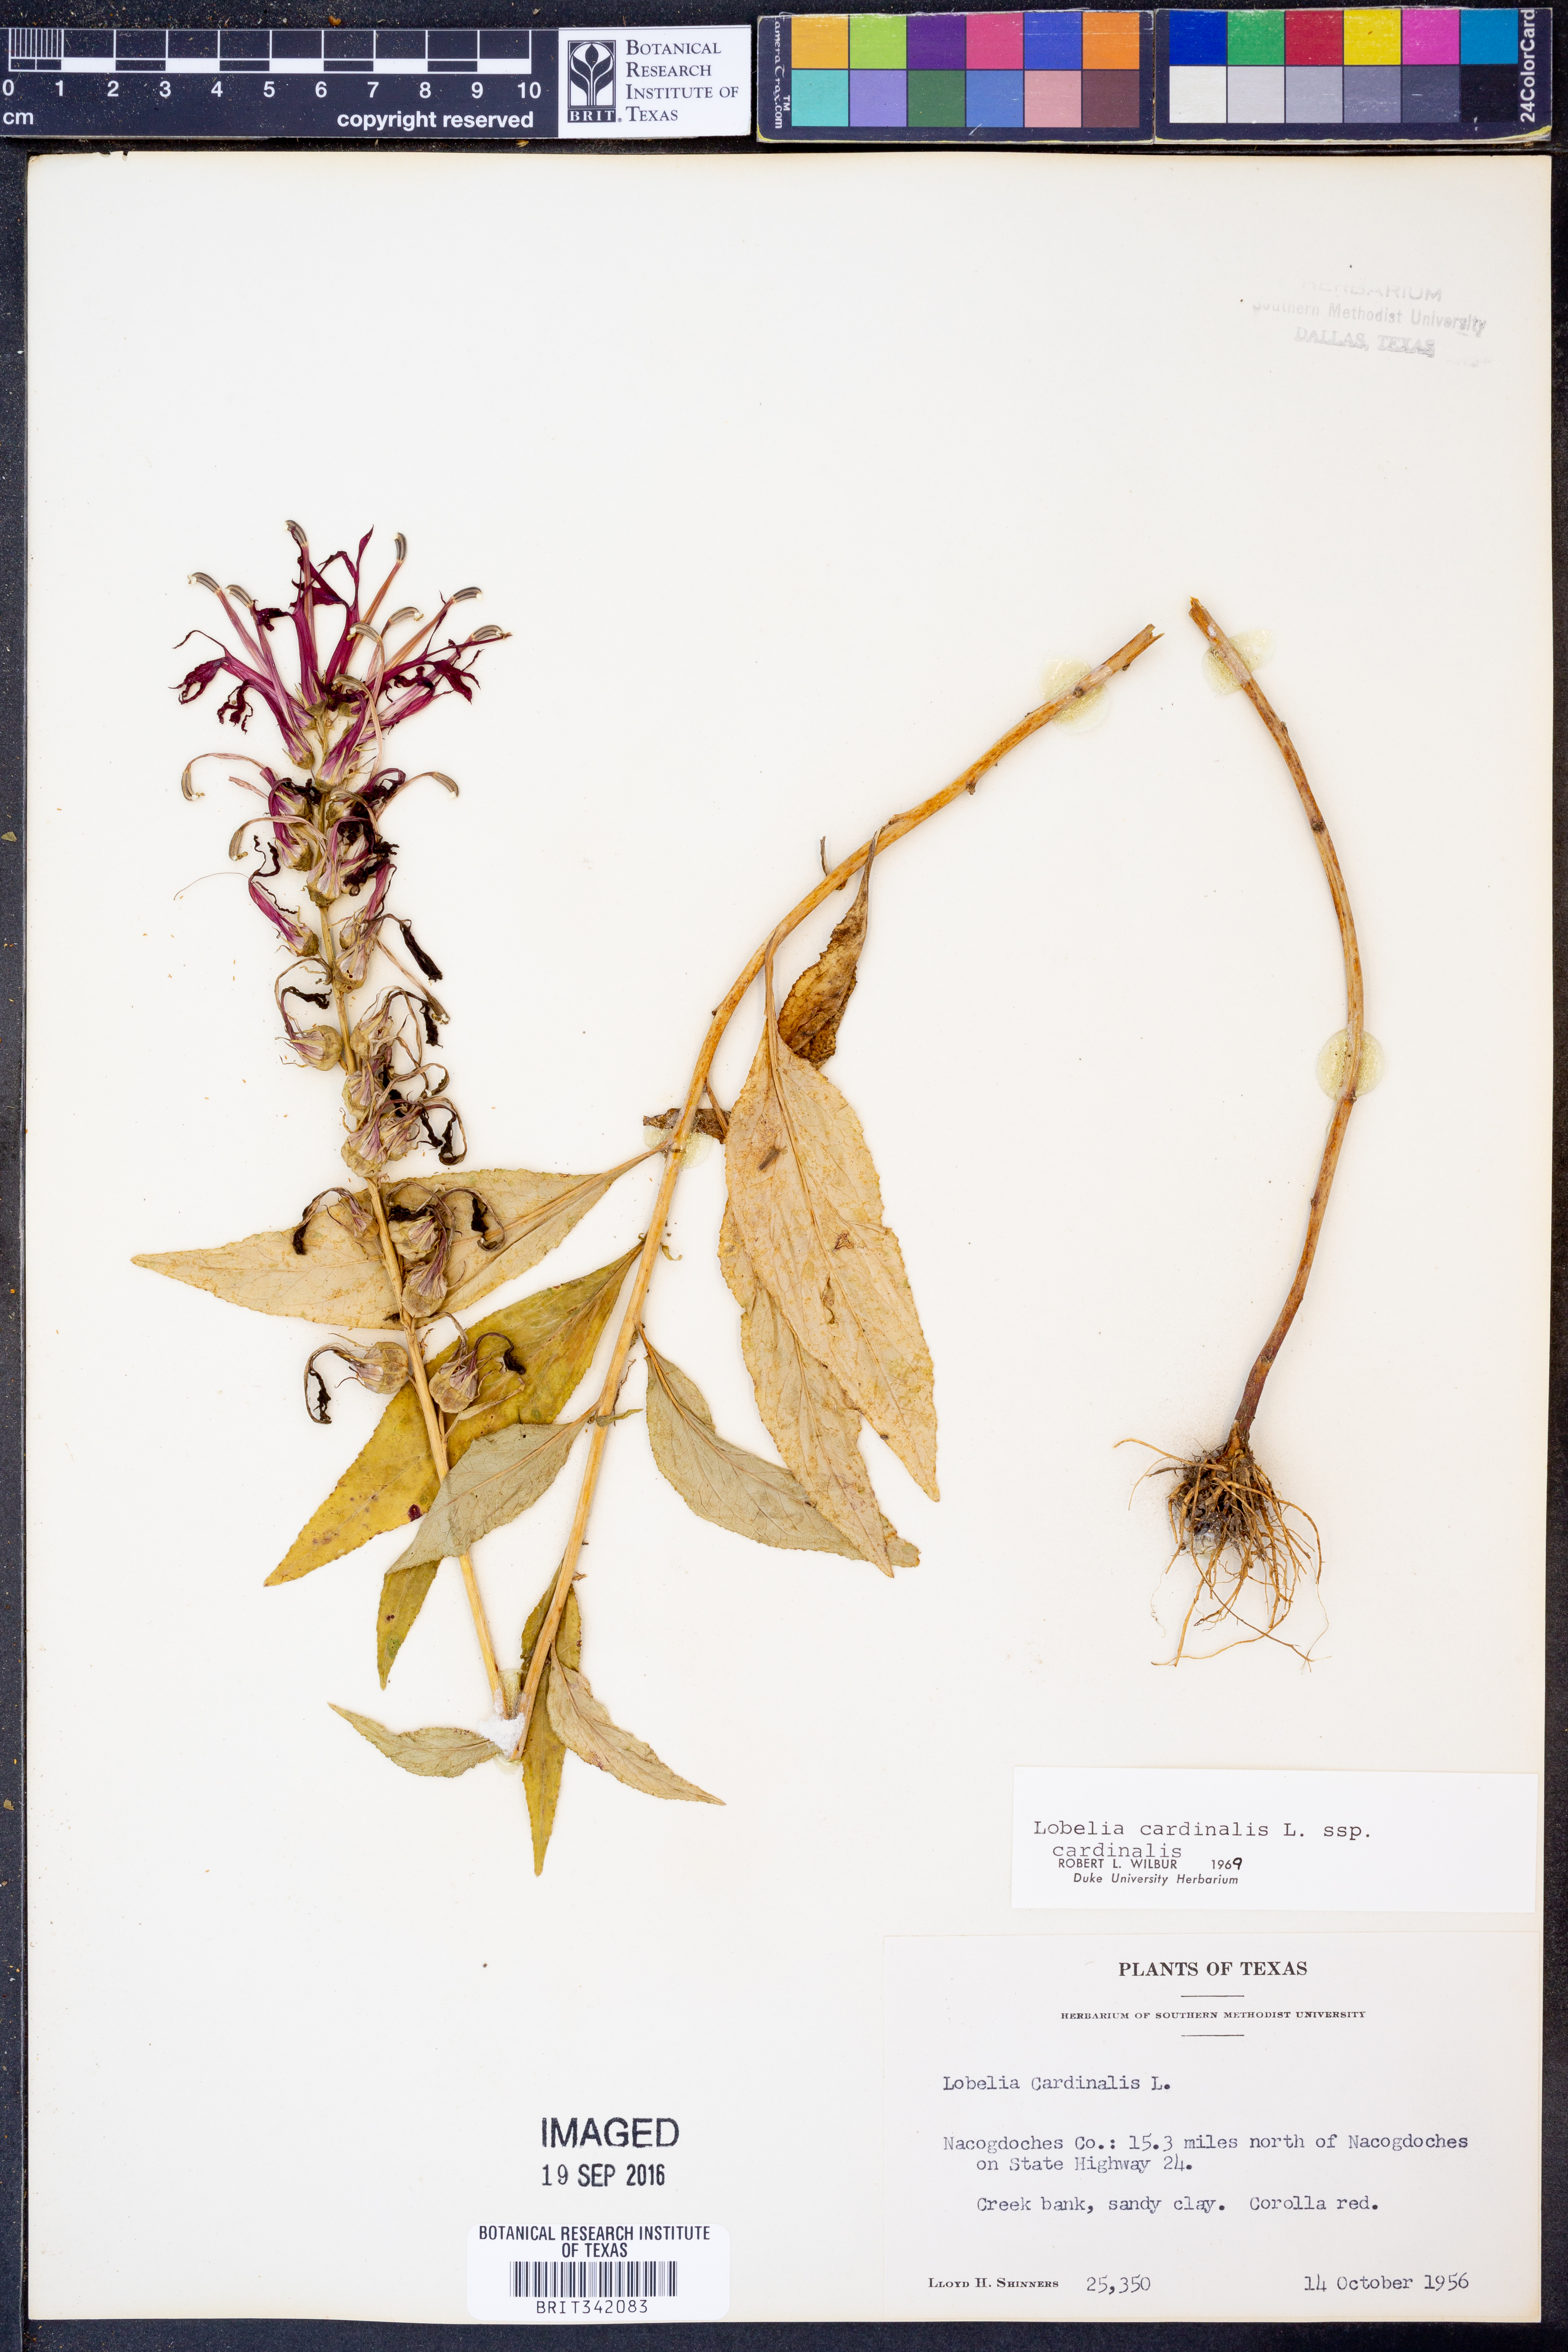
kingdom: Plantae
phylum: Tracheophyta
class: Magnoliopsida
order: Asterales
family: Campanulaceae
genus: Lobelia
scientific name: Lobelia cardinalis
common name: Cardinal flower
